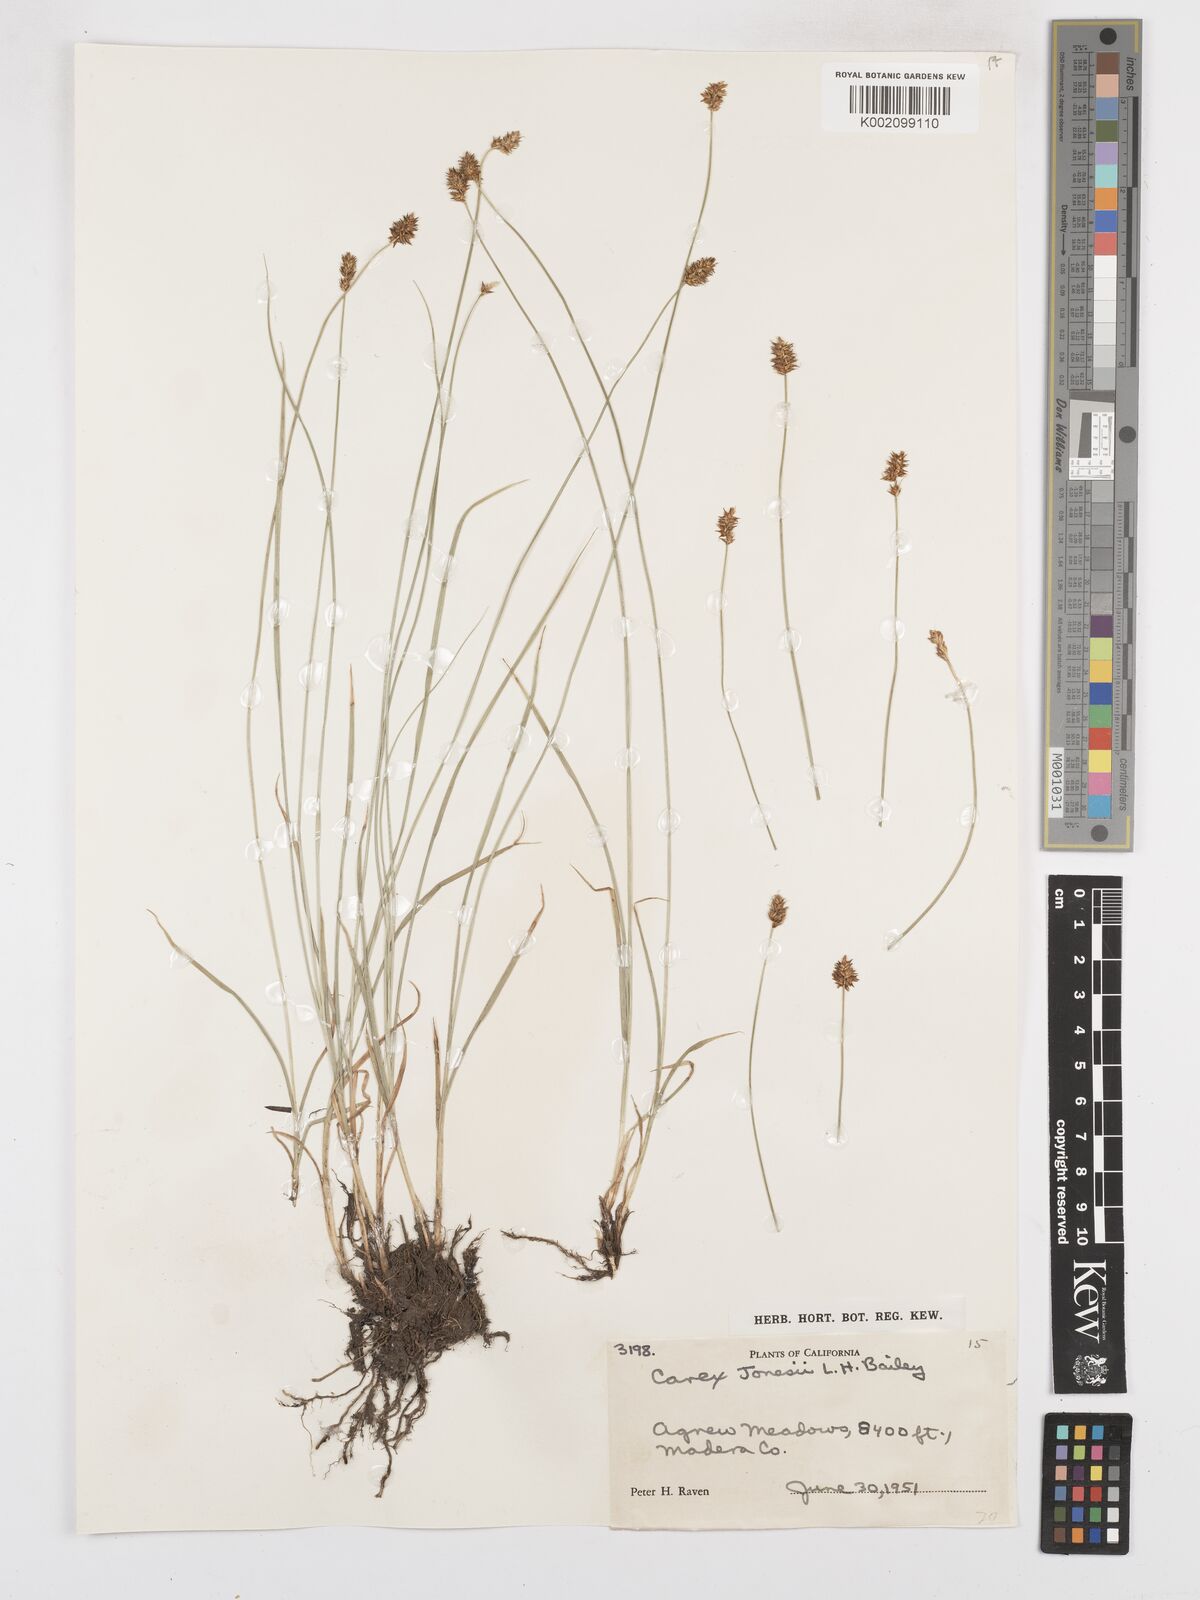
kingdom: Plantae
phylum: Tracheophyta
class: Liliopsida
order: Poales
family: Cyperaceae
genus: Carex
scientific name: Carex jonesii
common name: Jones' sedge
